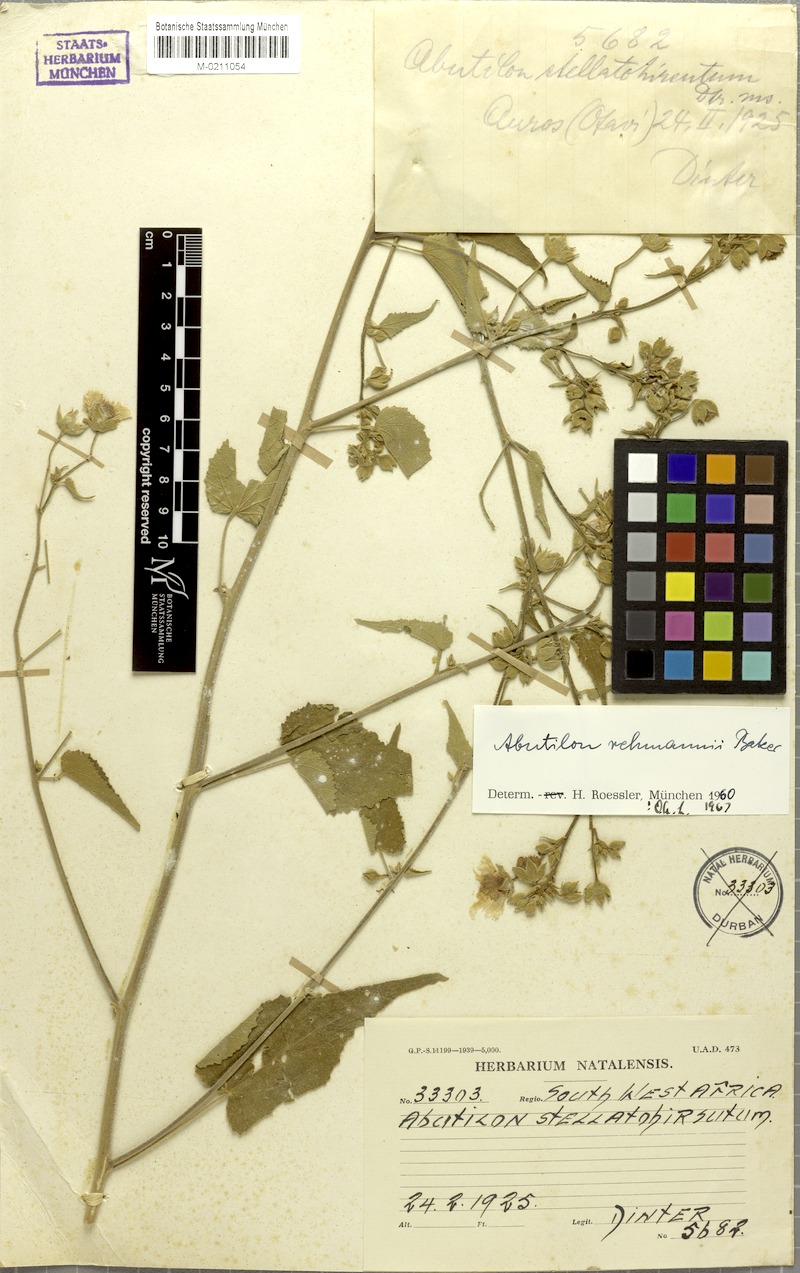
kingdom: Plantae
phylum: Tracheophyta
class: Magnoliopsida
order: Malvales
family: Malvaceae
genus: Abutilon
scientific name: Abutilon rehmannii
